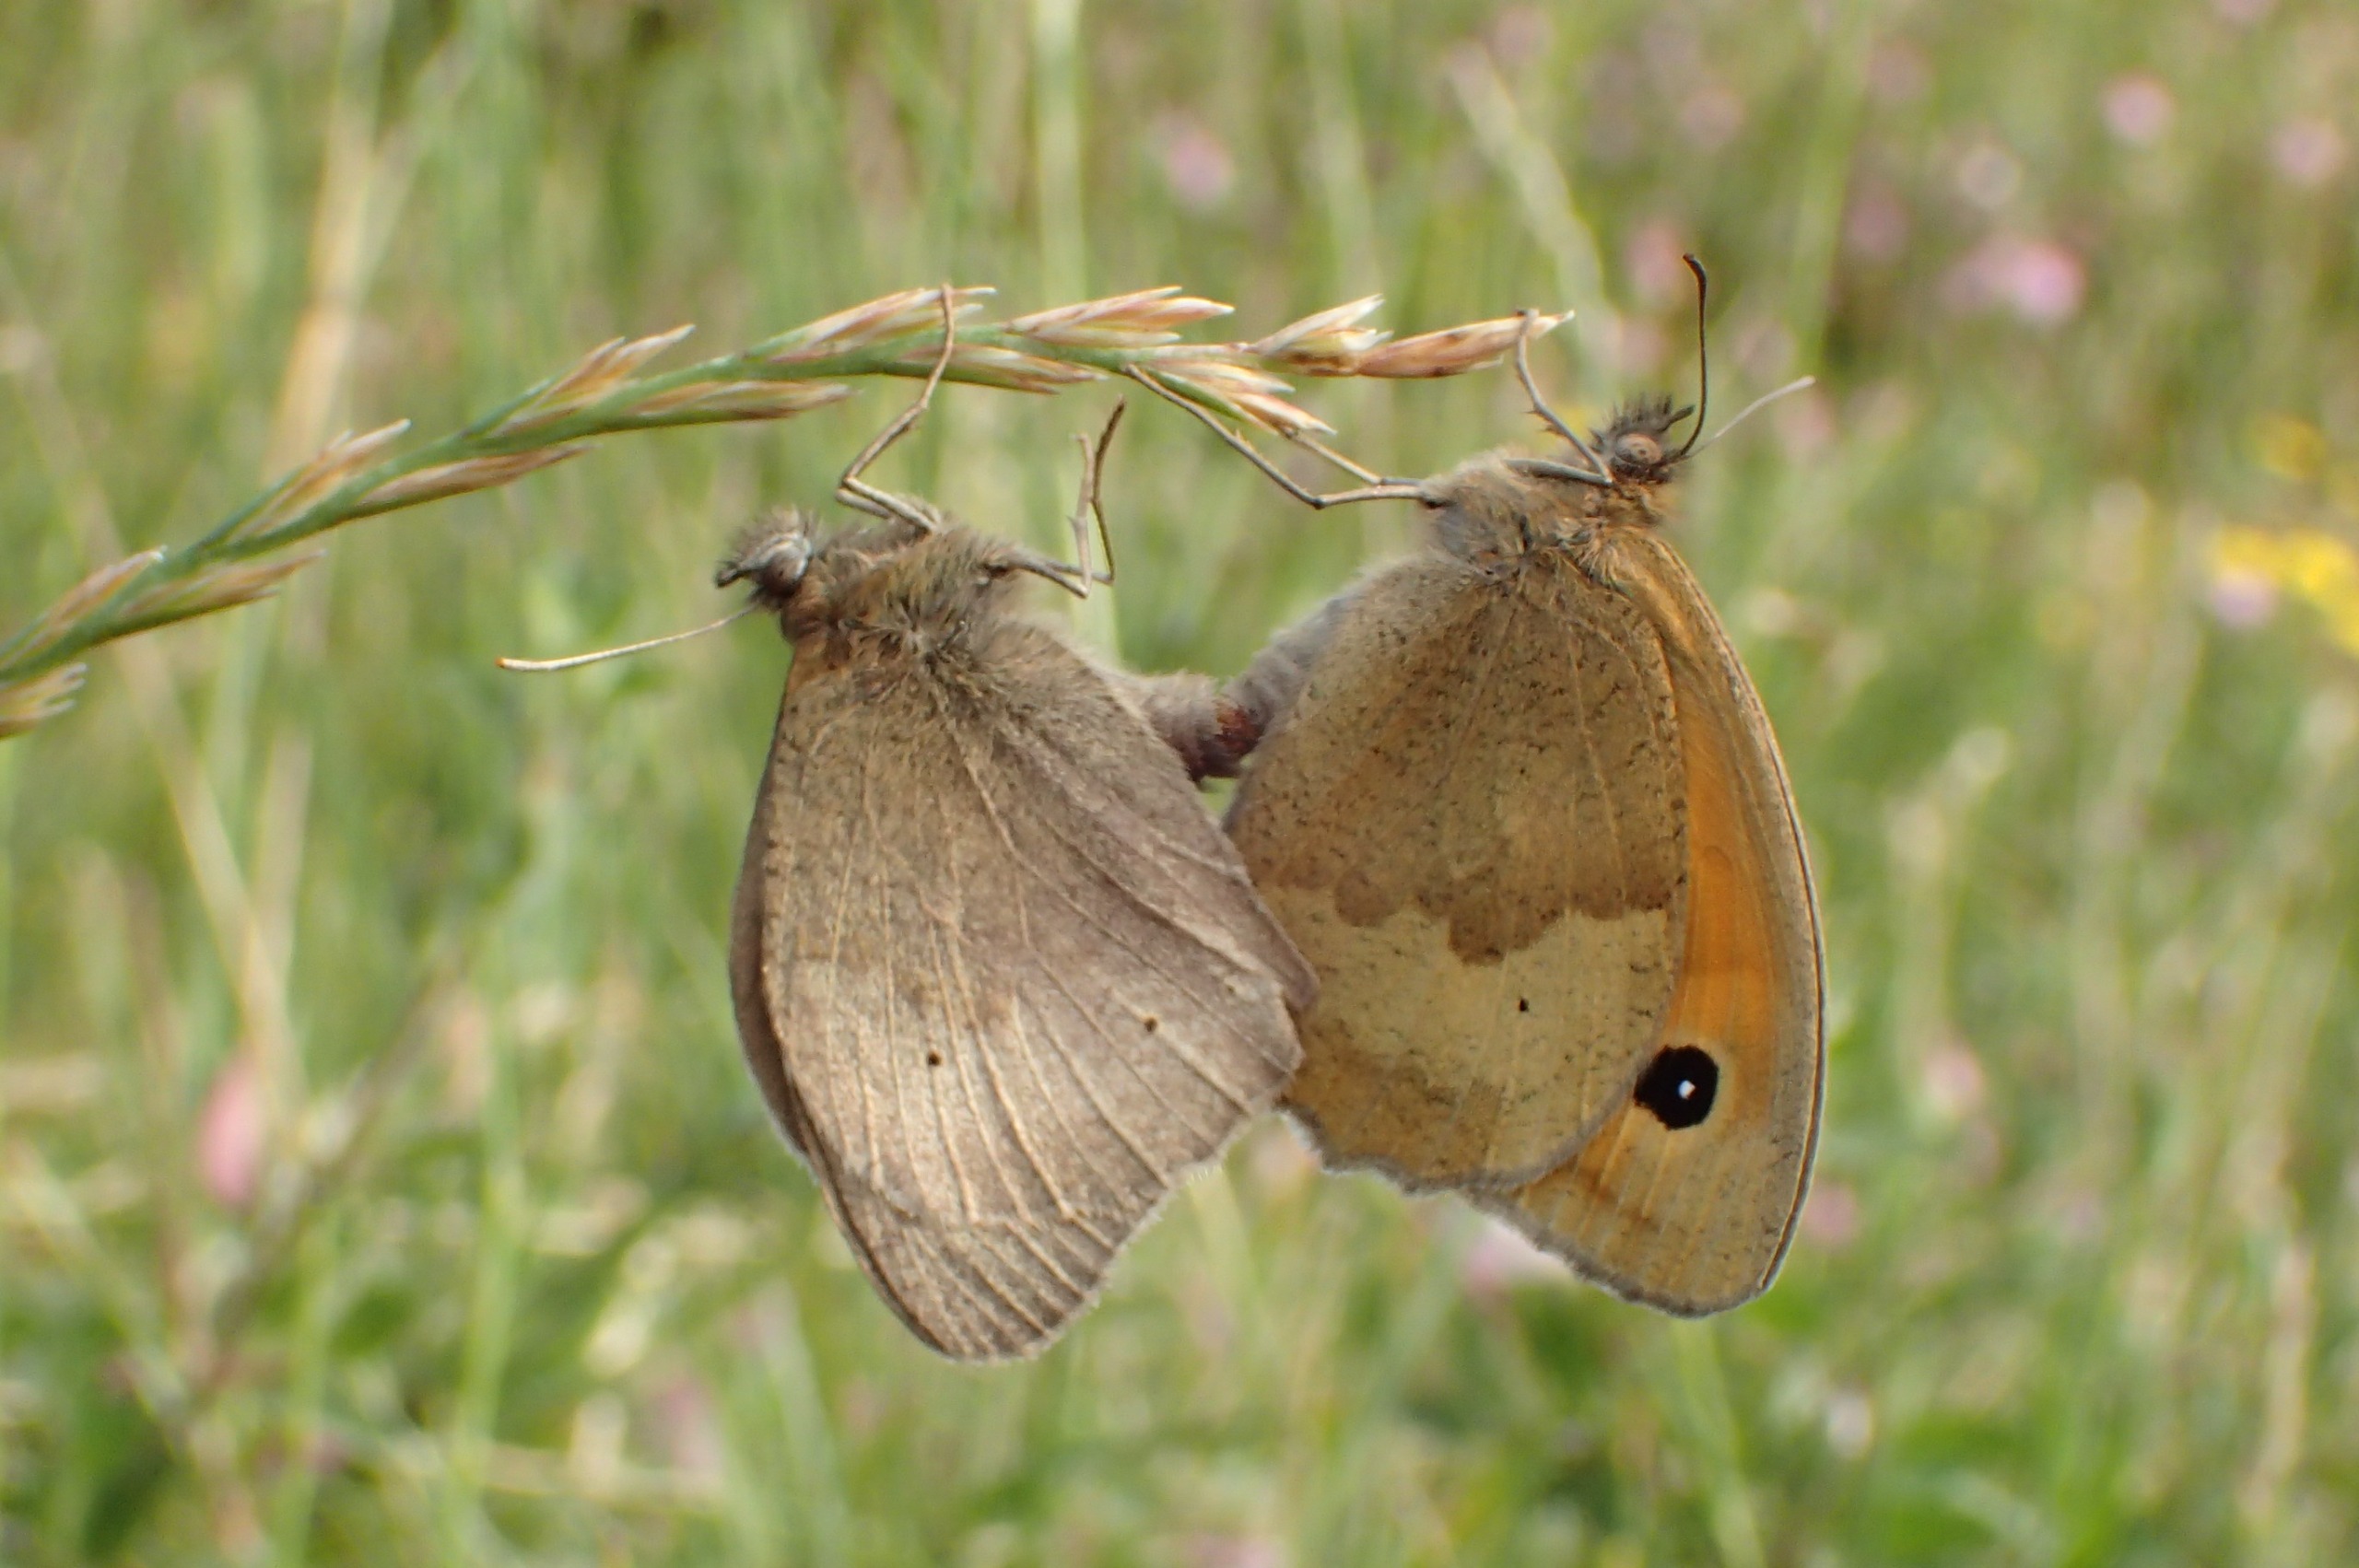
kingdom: Animalia
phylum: Arthropoda
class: Insecta
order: Lepidoptera
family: Nymphalidae
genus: Maniola
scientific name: Maniola jurtina
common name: Græsrandøje
